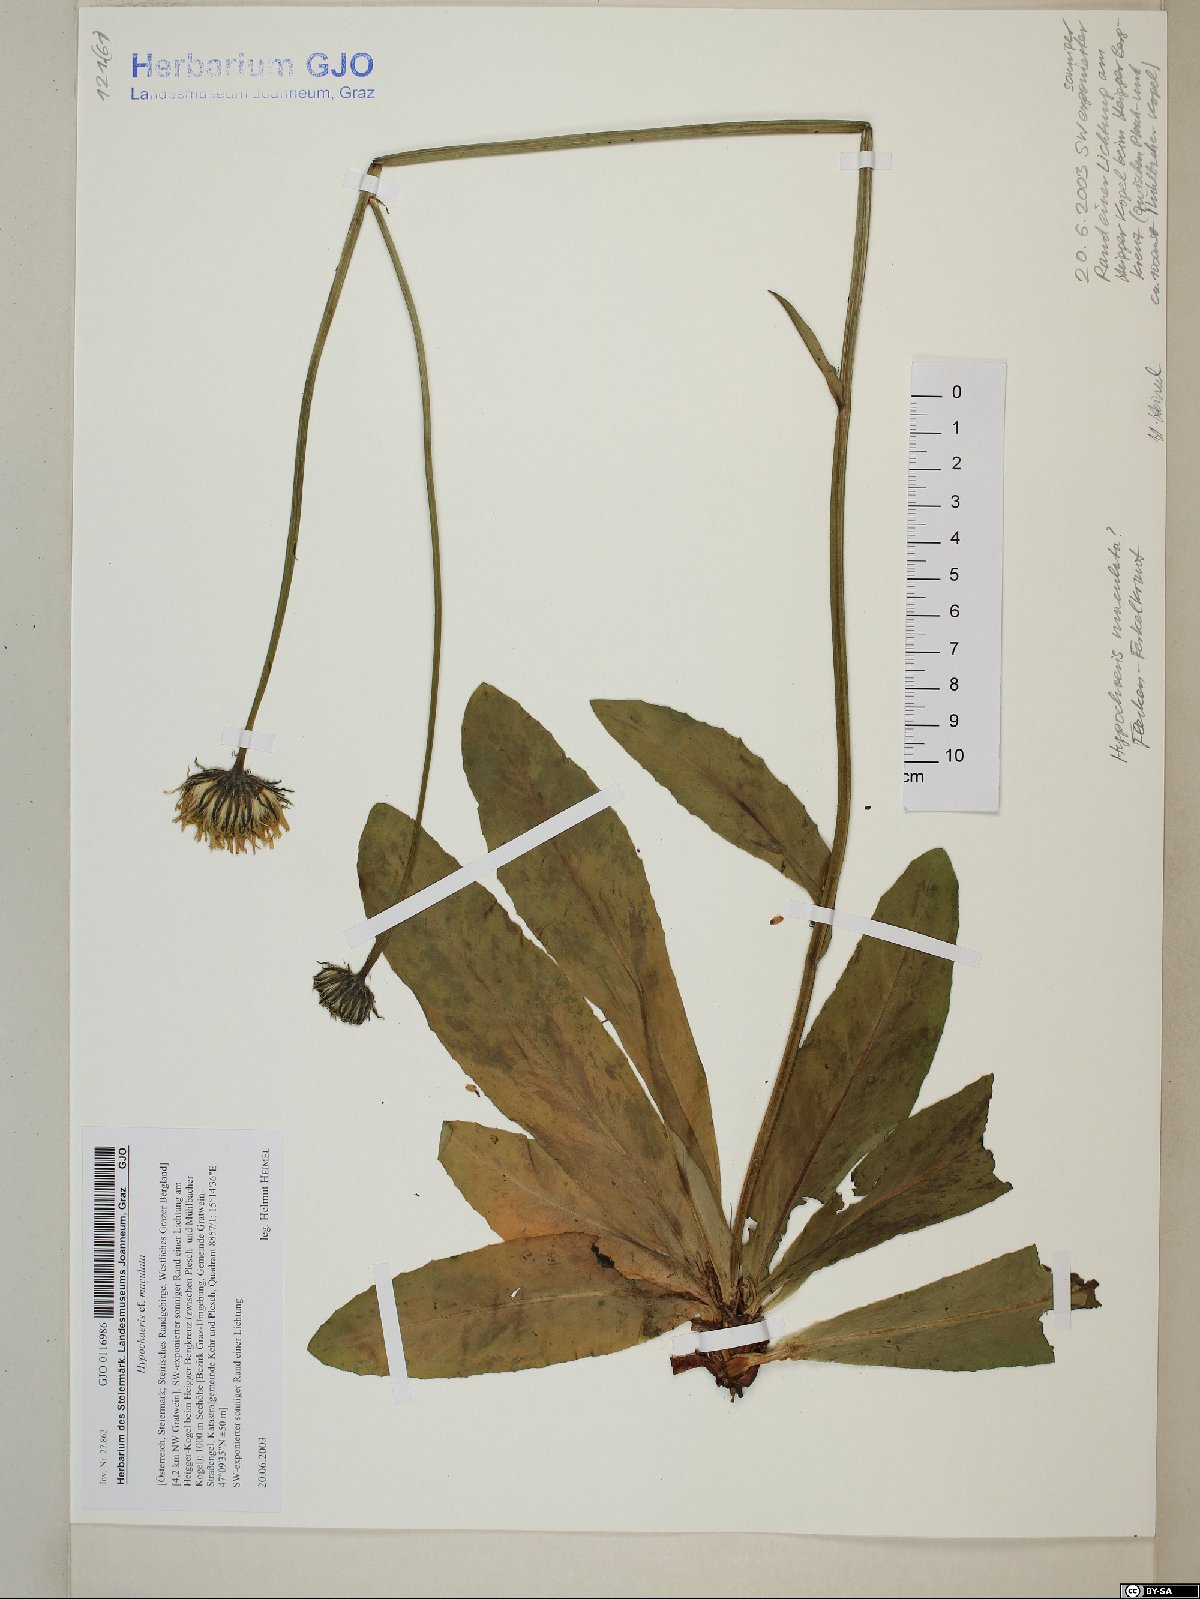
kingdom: Plantae
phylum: Tracheophyta
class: Magnoliopsida
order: Asterales
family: Asteraceae
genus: Trommsdorffia
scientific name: Trommsdorffia maculata
